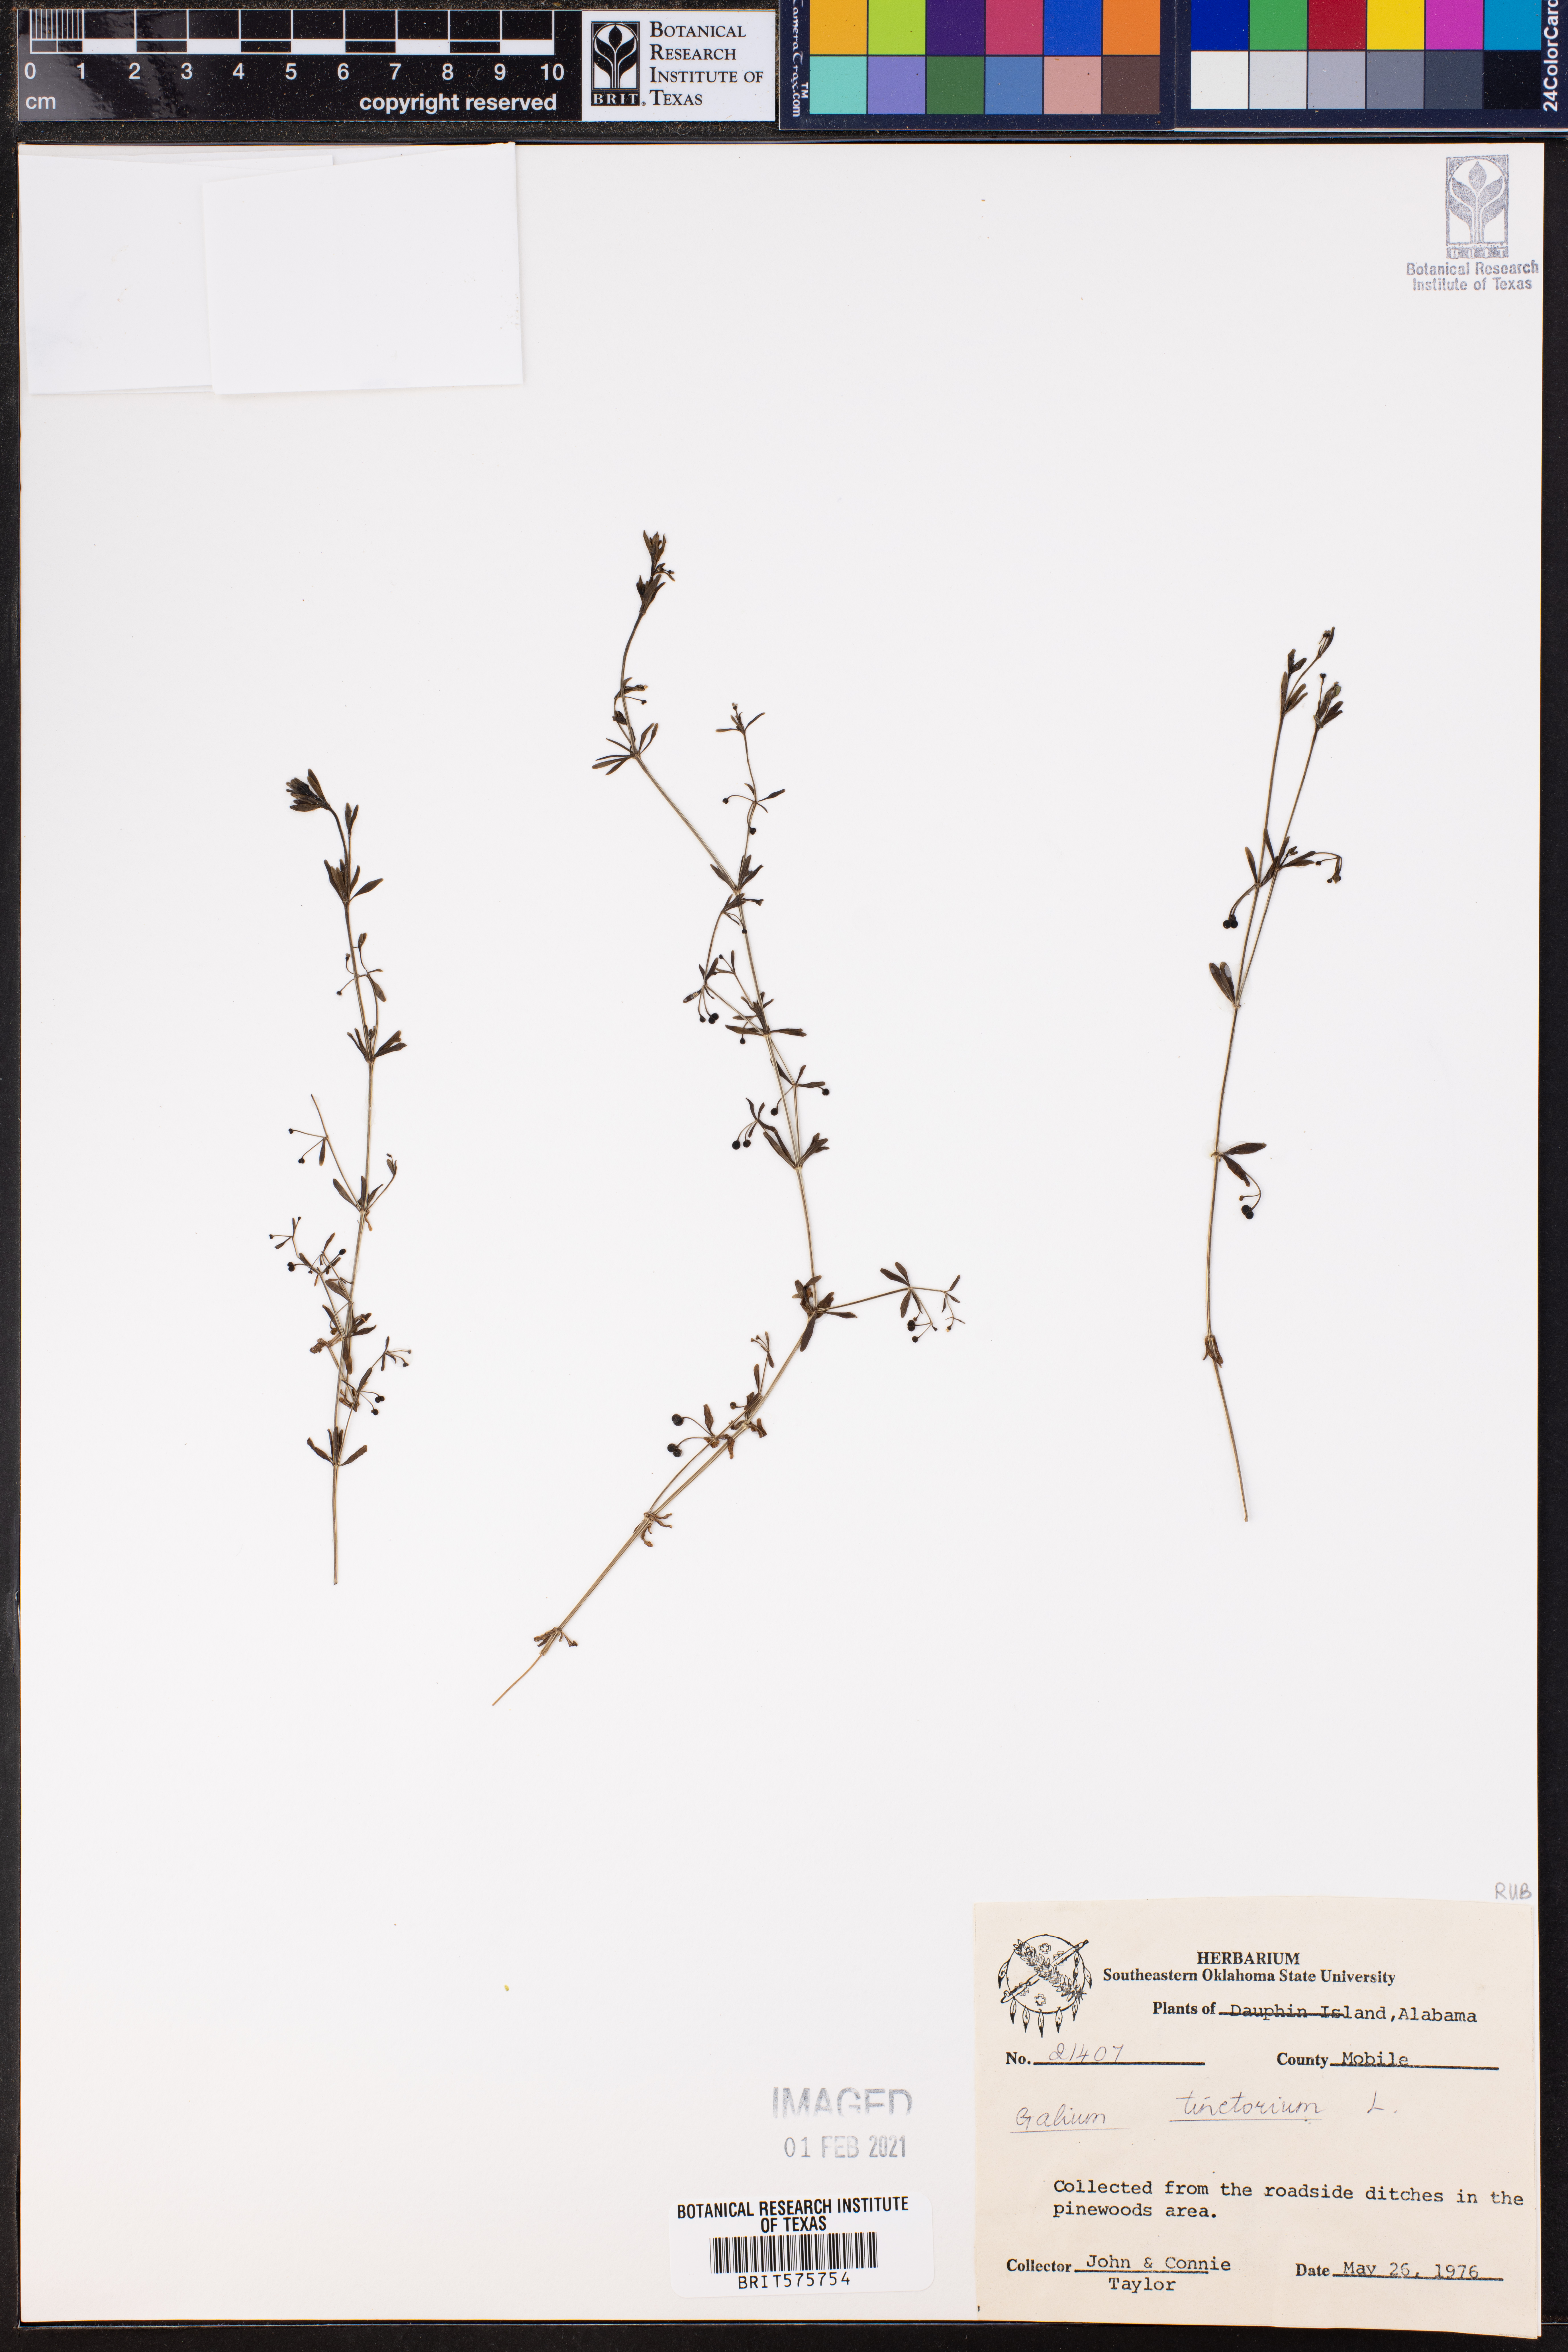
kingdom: Plantae
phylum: Tracheophyta
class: Magnoliopsida
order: Gentianales
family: Rubiaceae
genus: Asperula
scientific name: Asperula tinctoria
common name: Dyer's woodruff
